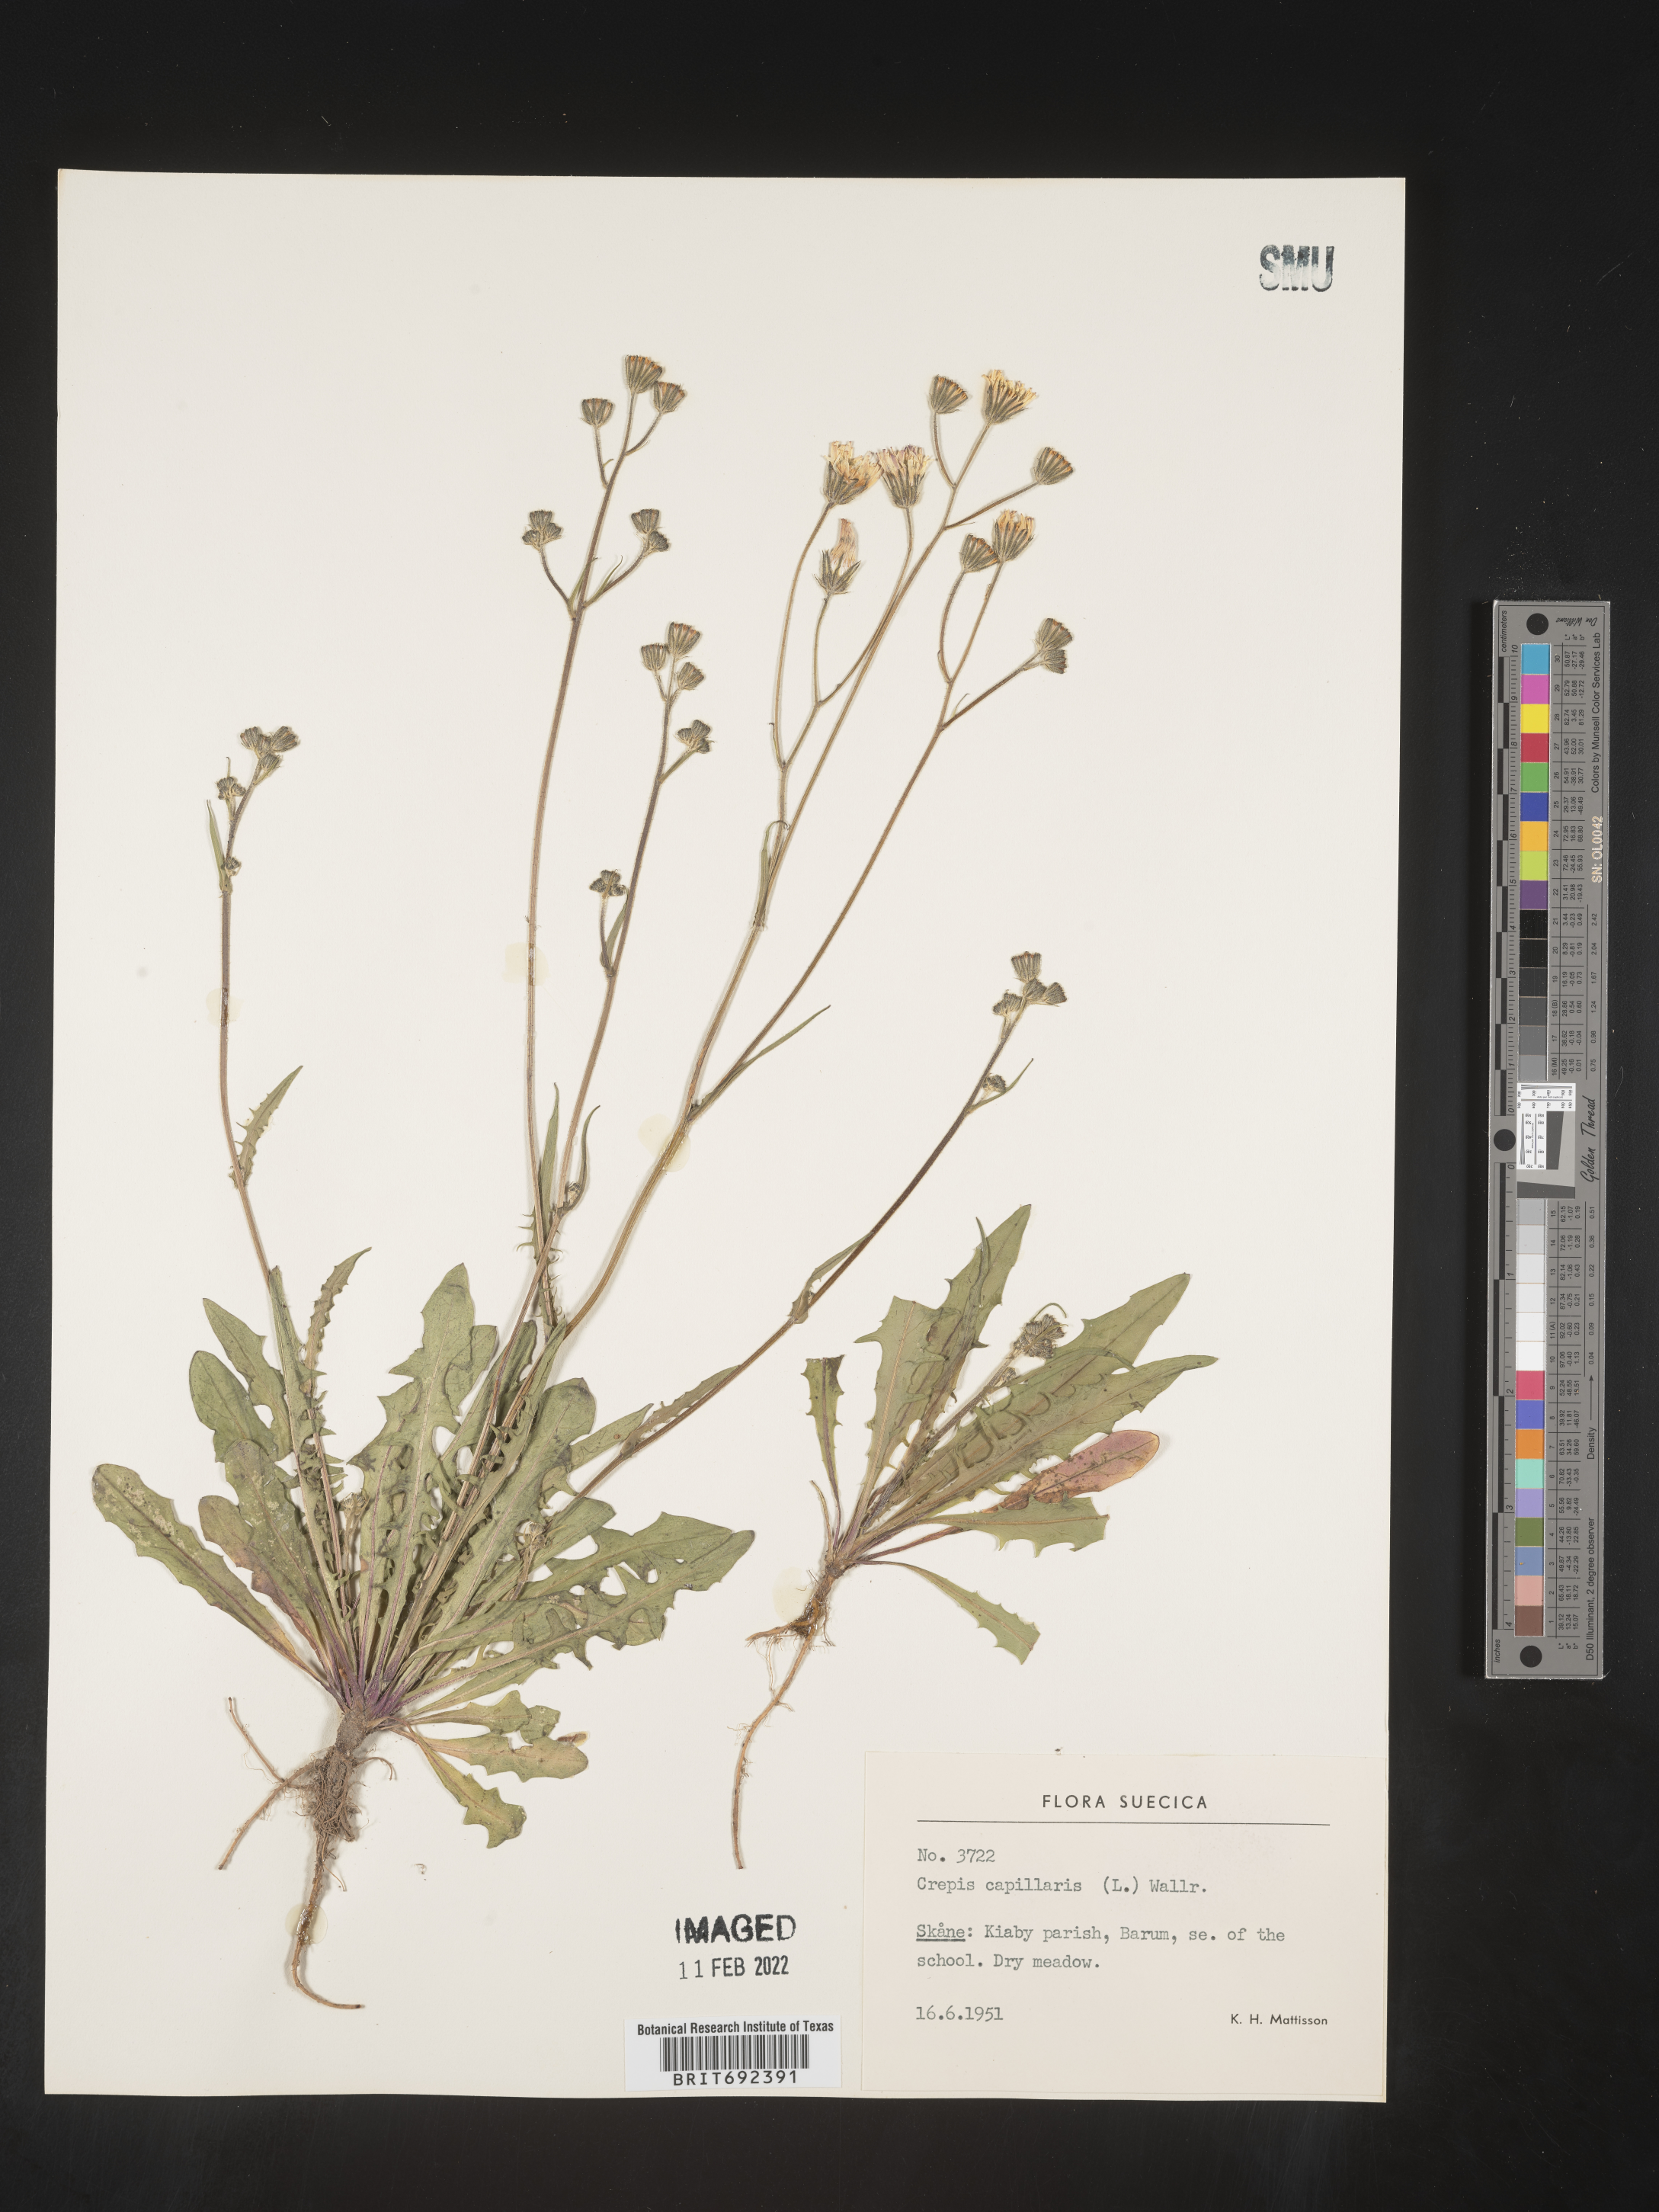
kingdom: Plantae
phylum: Tracheophyta
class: Magnoliopsida
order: Asterales
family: Asteraceae
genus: Crepis
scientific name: Crepis
